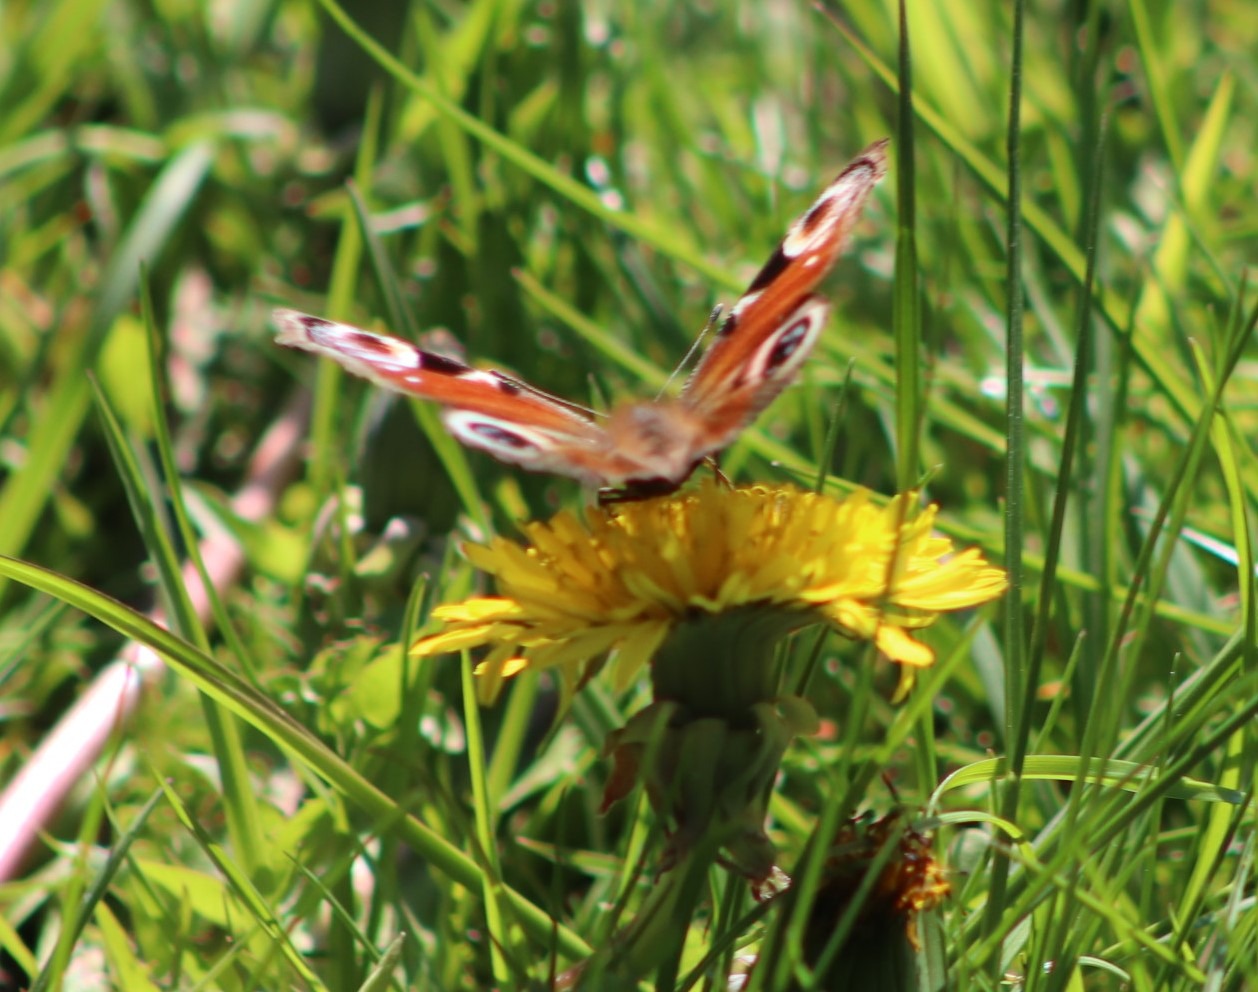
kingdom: Animalia
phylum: Arthropoda
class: Insecta
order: Lepidoptera
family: Nymphalidae
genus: Aglais
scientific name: Aglais io
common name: Dagpåfugleøje
